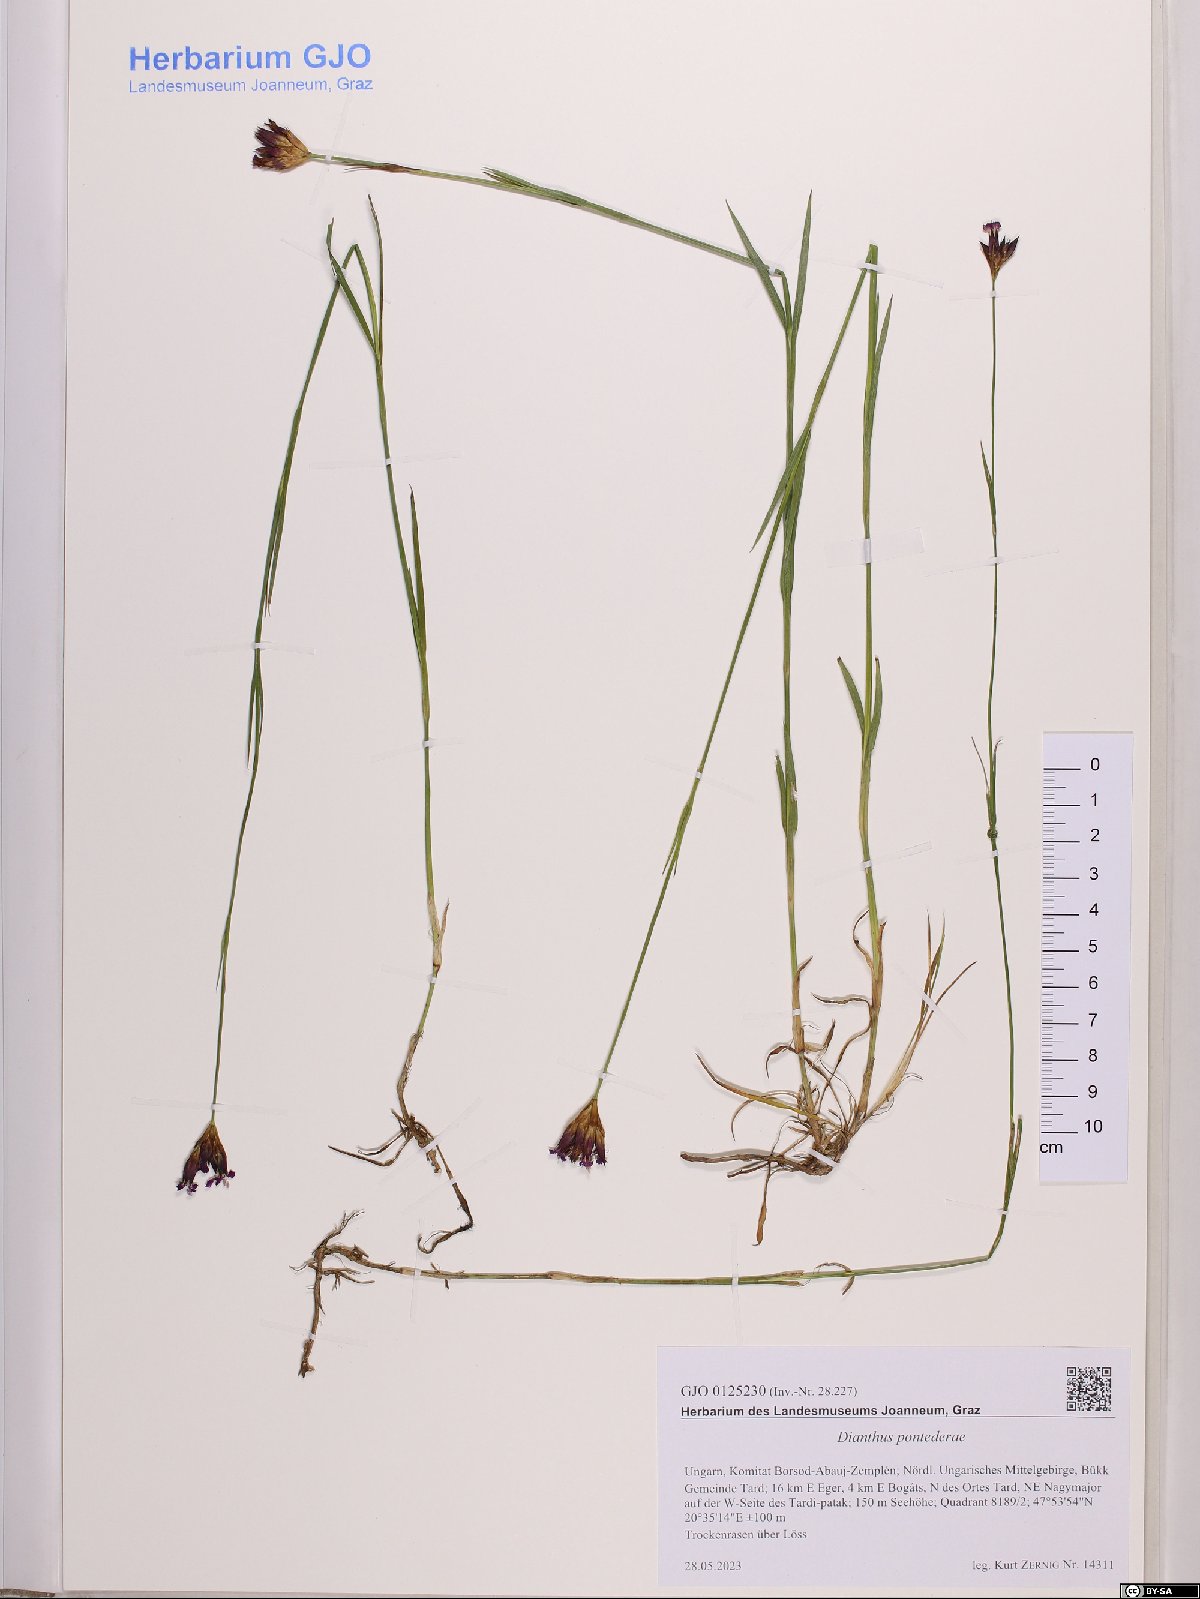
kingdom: Plantae
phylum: Tracheophyta
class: Magnoliopsida
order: Caryophyllales
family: Caryophyllaceae
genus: Dianthus
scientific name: Dianthus pontederae
